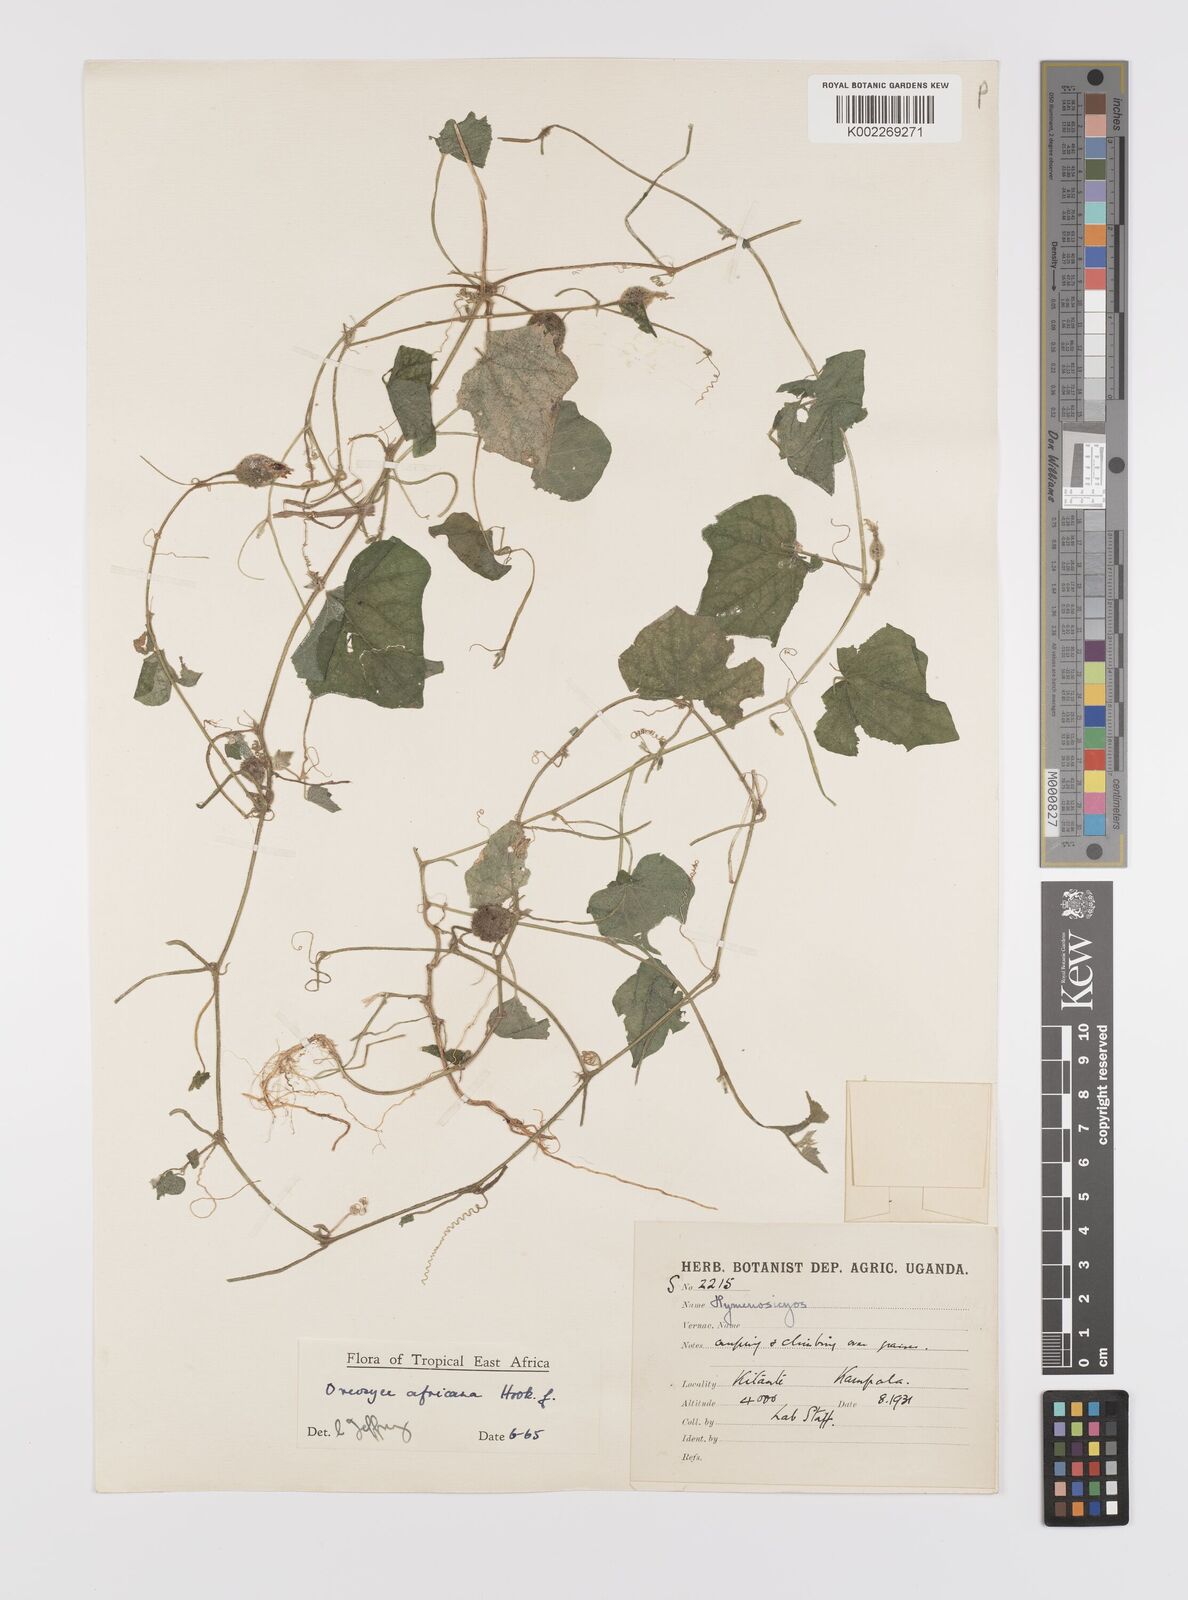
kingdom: Plantae
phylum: Tracheophyta
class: Magnoliopsida
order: Cucurbitales
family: Cucurbitaceae
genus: Cucumis
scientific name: Cucumis oreosyce
